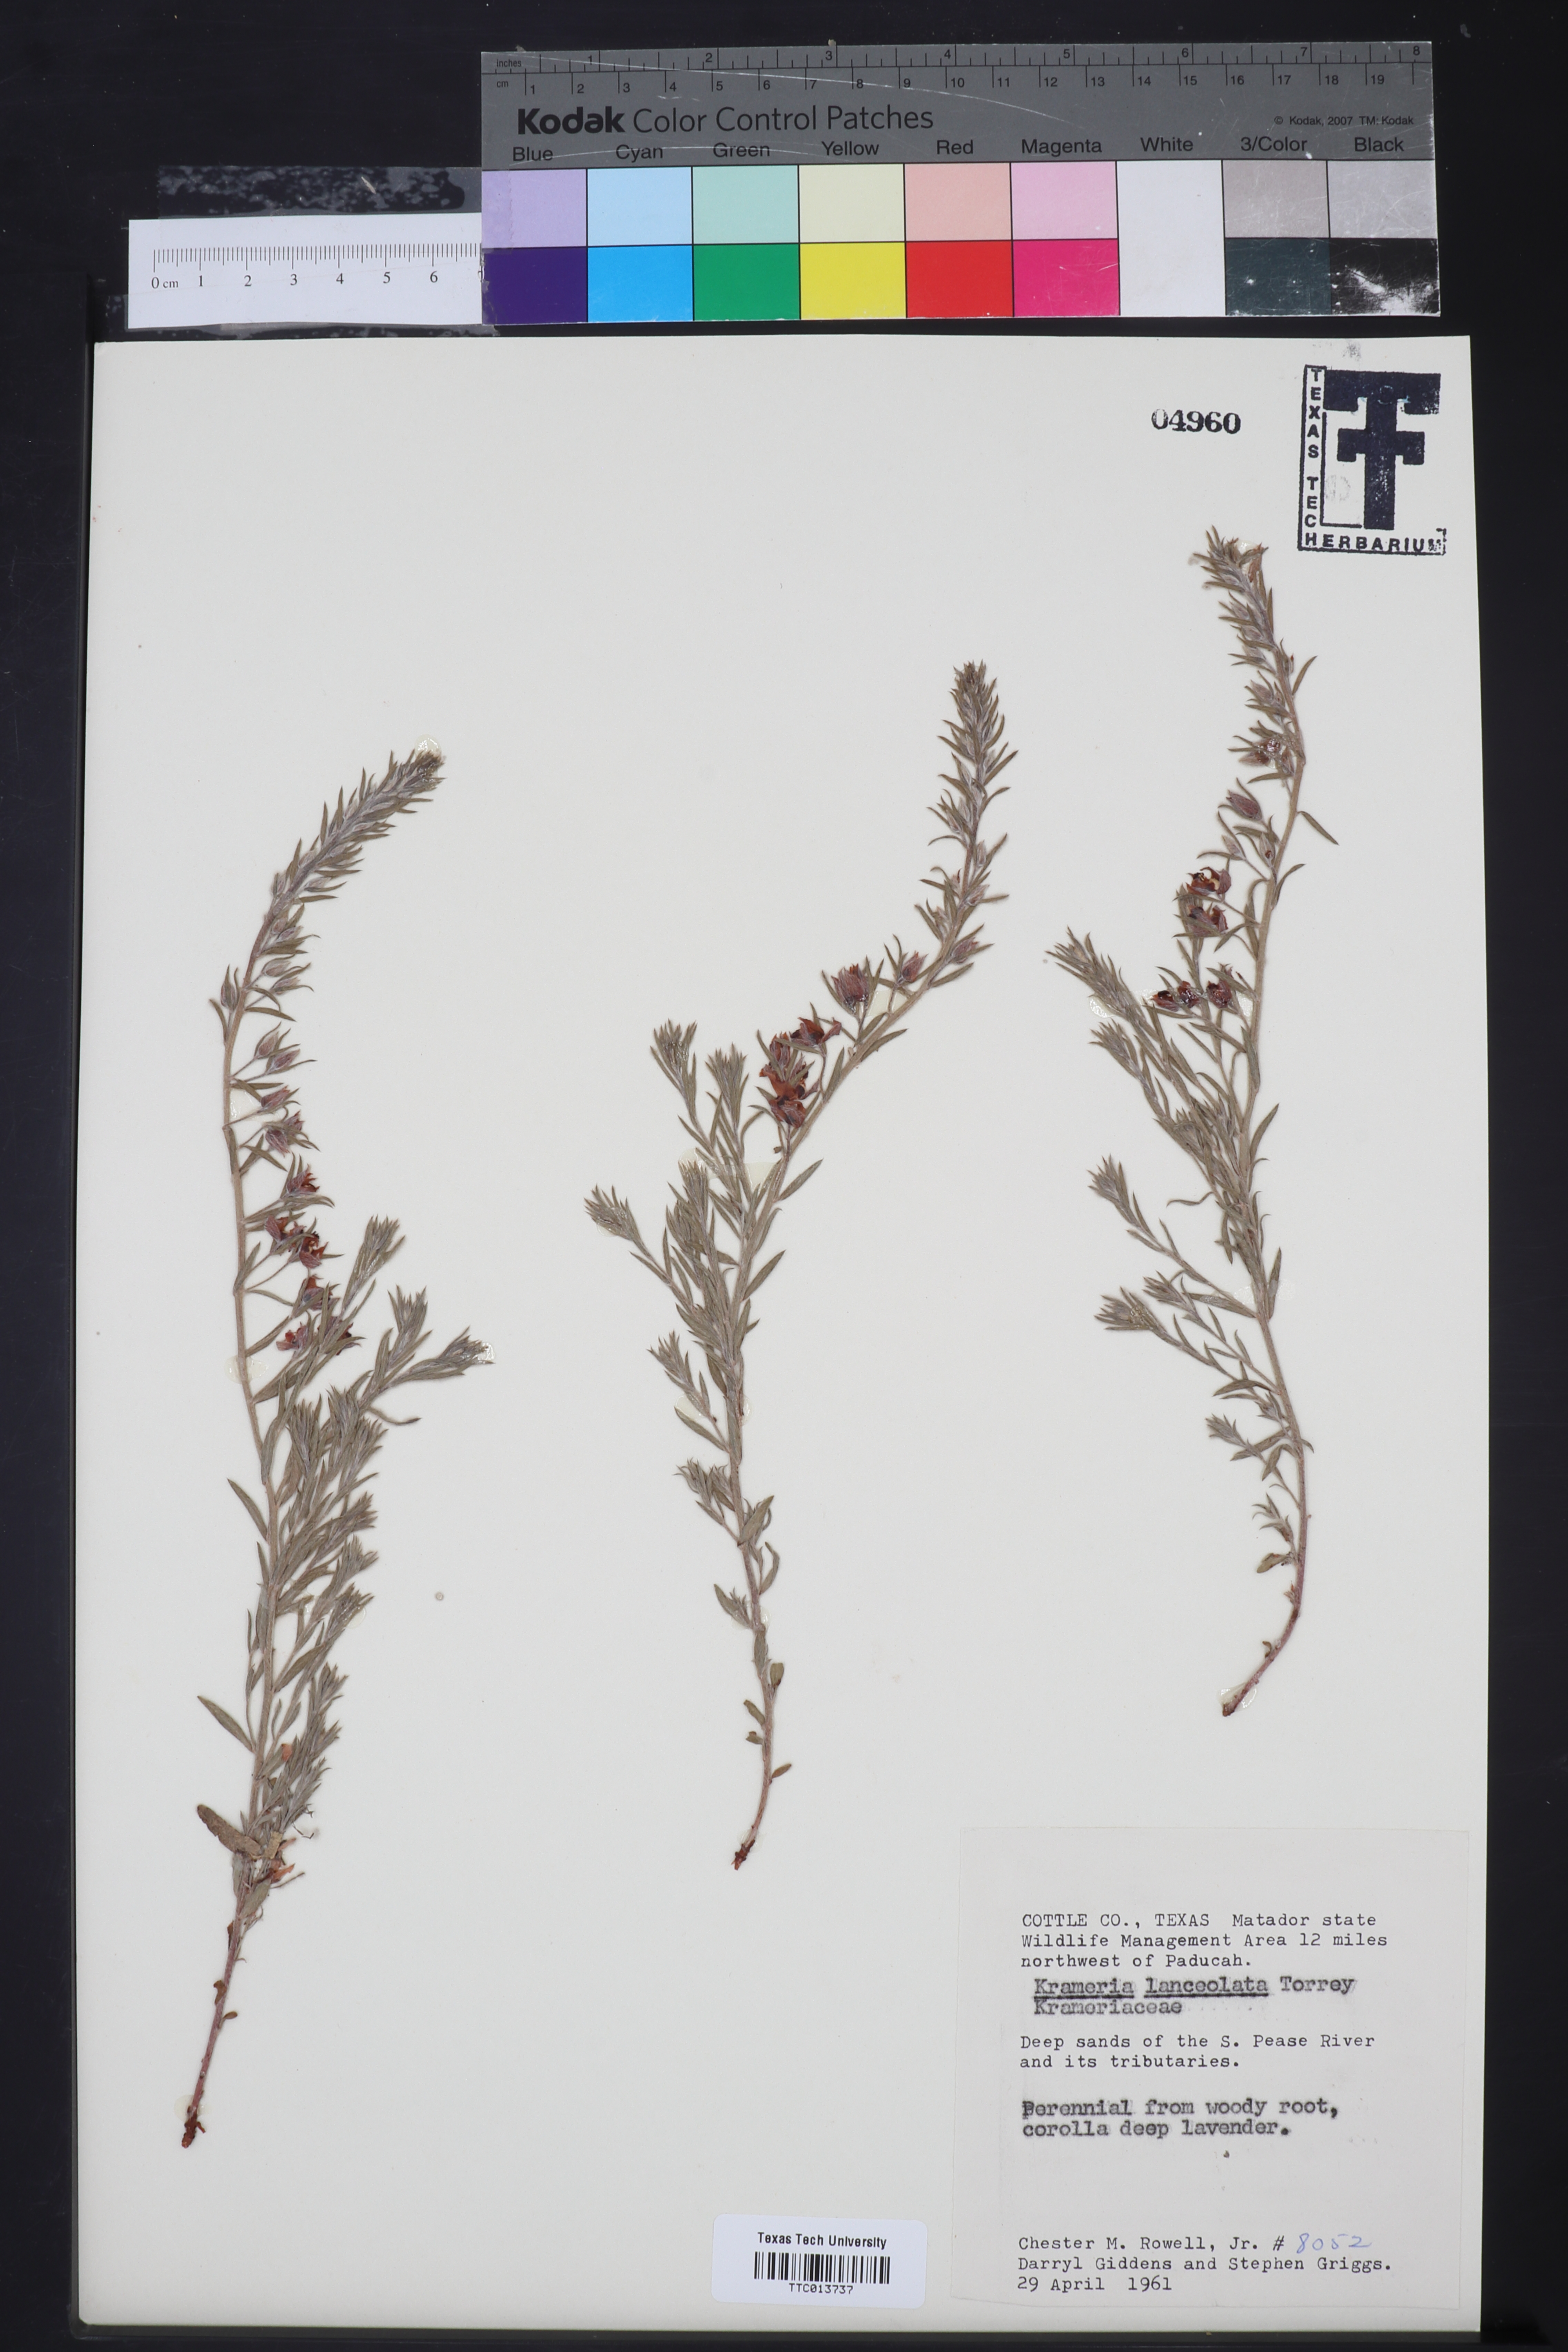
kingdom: Plantae
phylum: Tracheophyta
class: Magnoliopsida
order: Zygophyllales
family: Krameriaceae
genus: Krameria
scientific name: Krameria lanceolata
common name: Ratany
